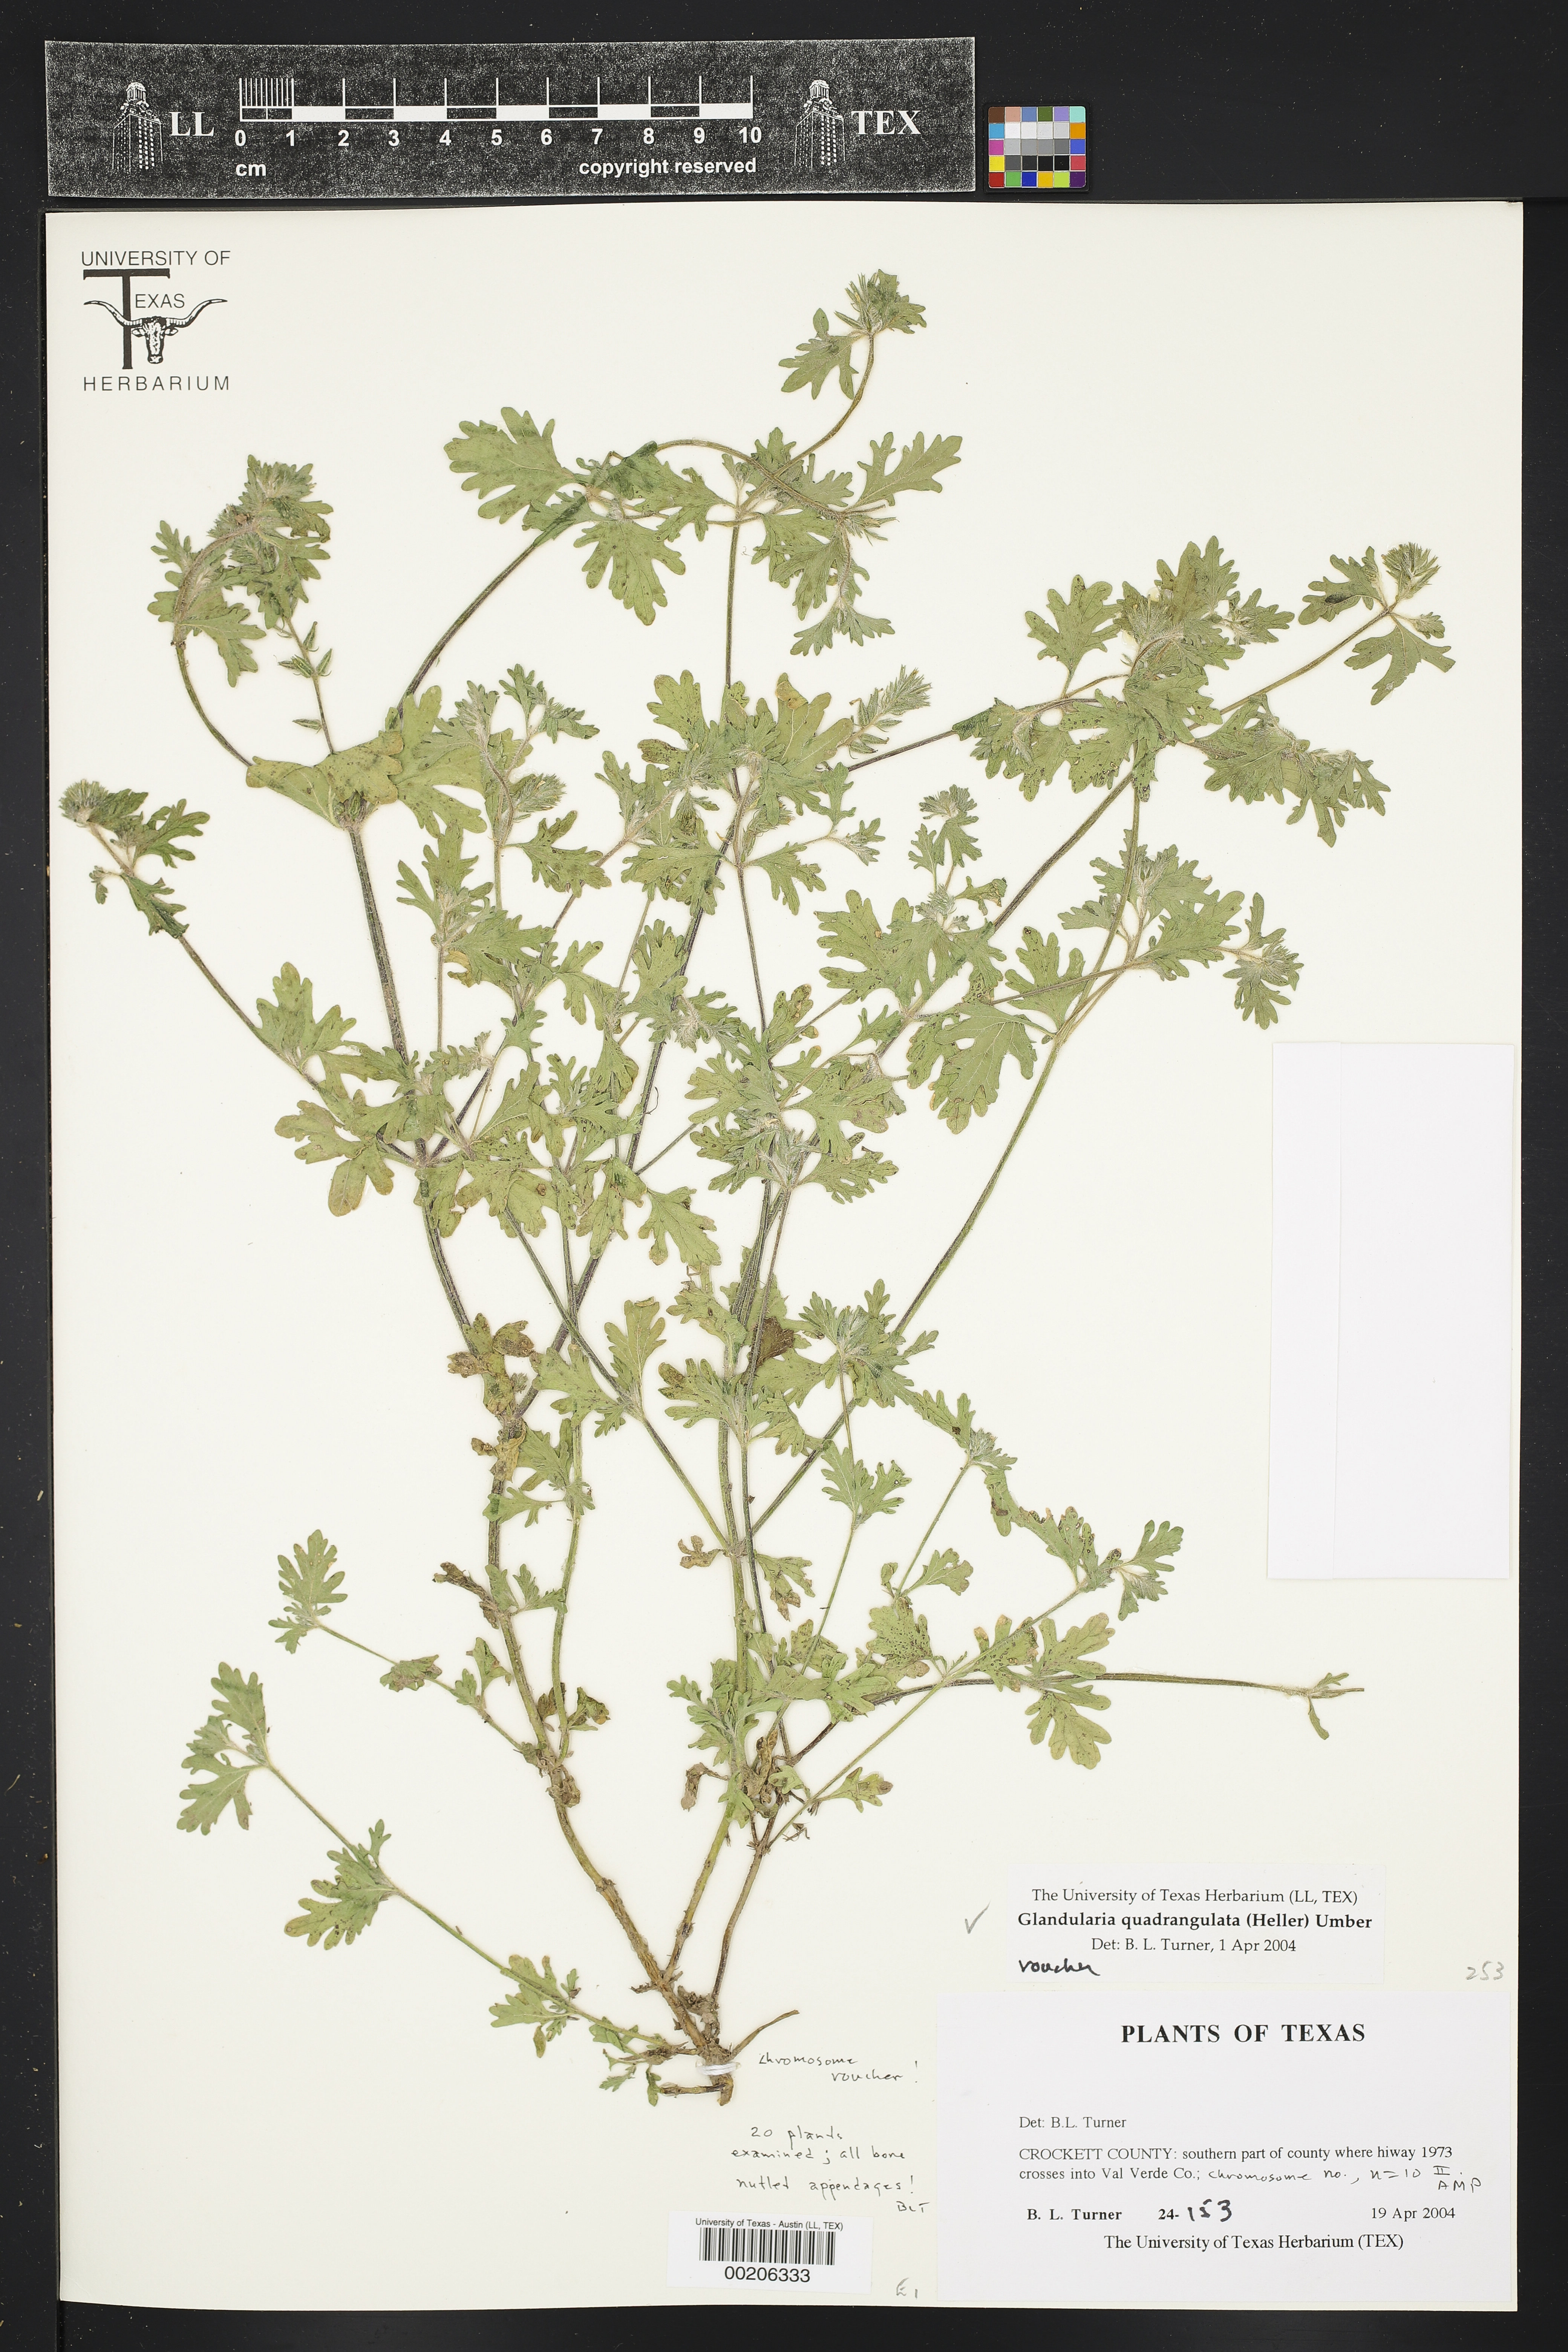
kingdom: Plantae
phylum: Tracheophyta
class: Magnoliopsida
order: Lamiales
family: Verbenaceae
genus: Verbena
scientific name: Verbena quadrangulata
